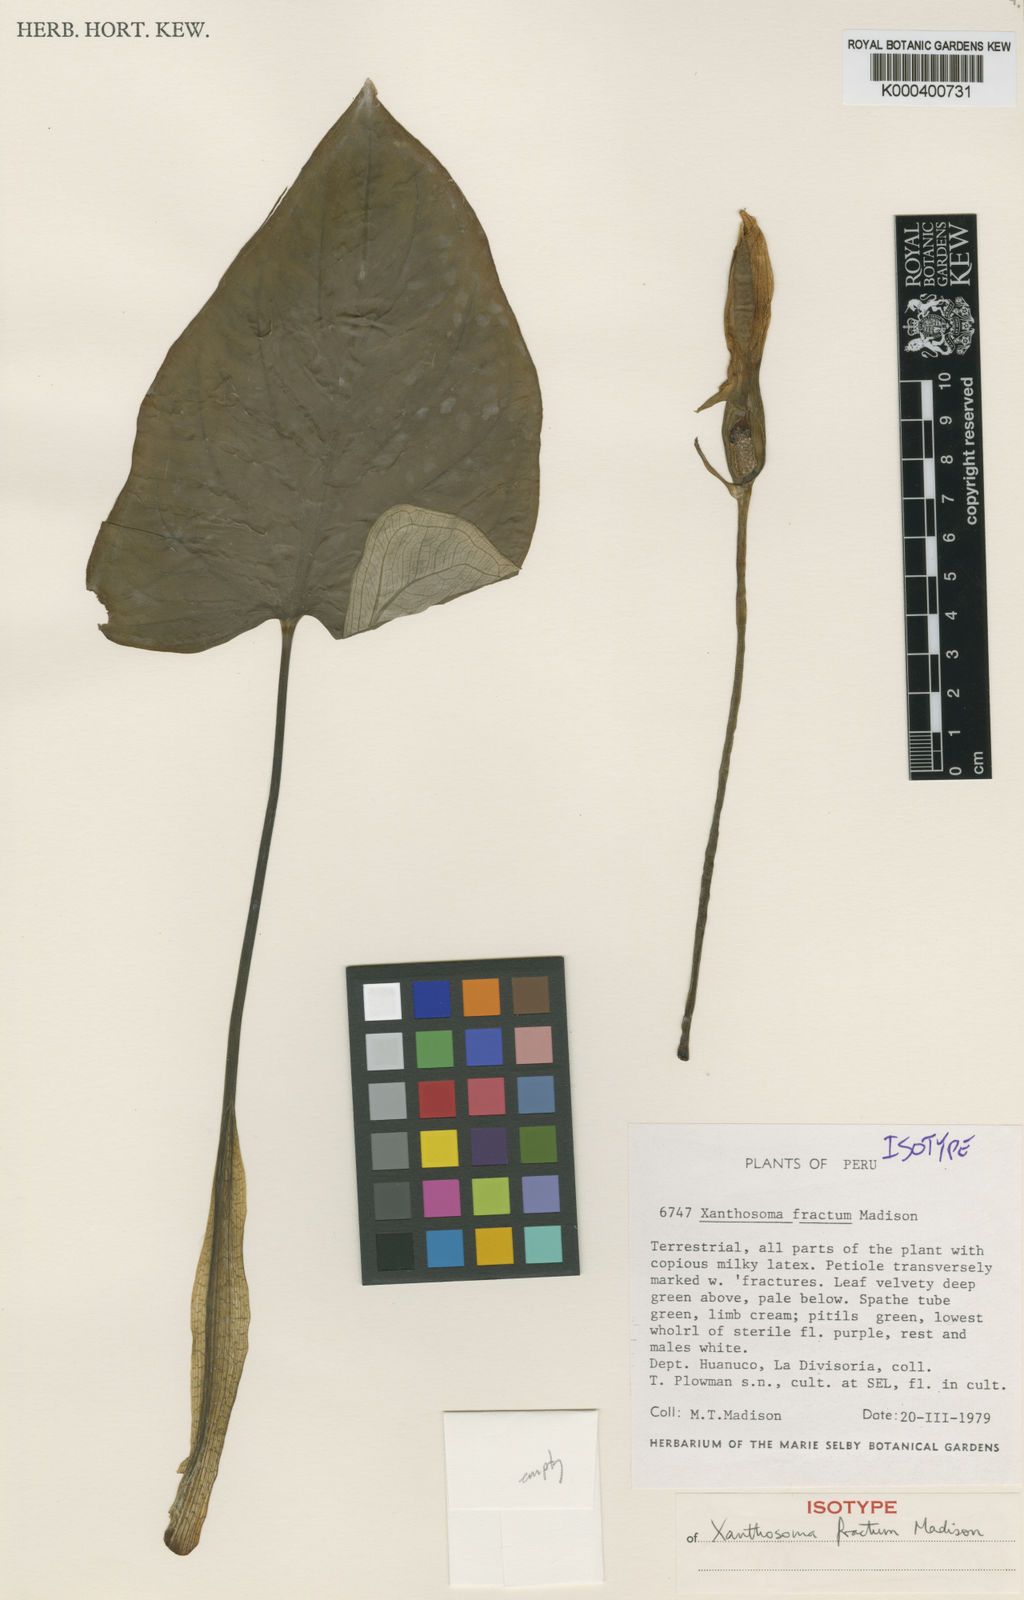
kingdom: Plantae
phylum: Tracheophyta
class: Liliopsida
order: Alismatales
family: Araceae
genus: Xanthosoma
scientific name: Xanthosoma fractum
